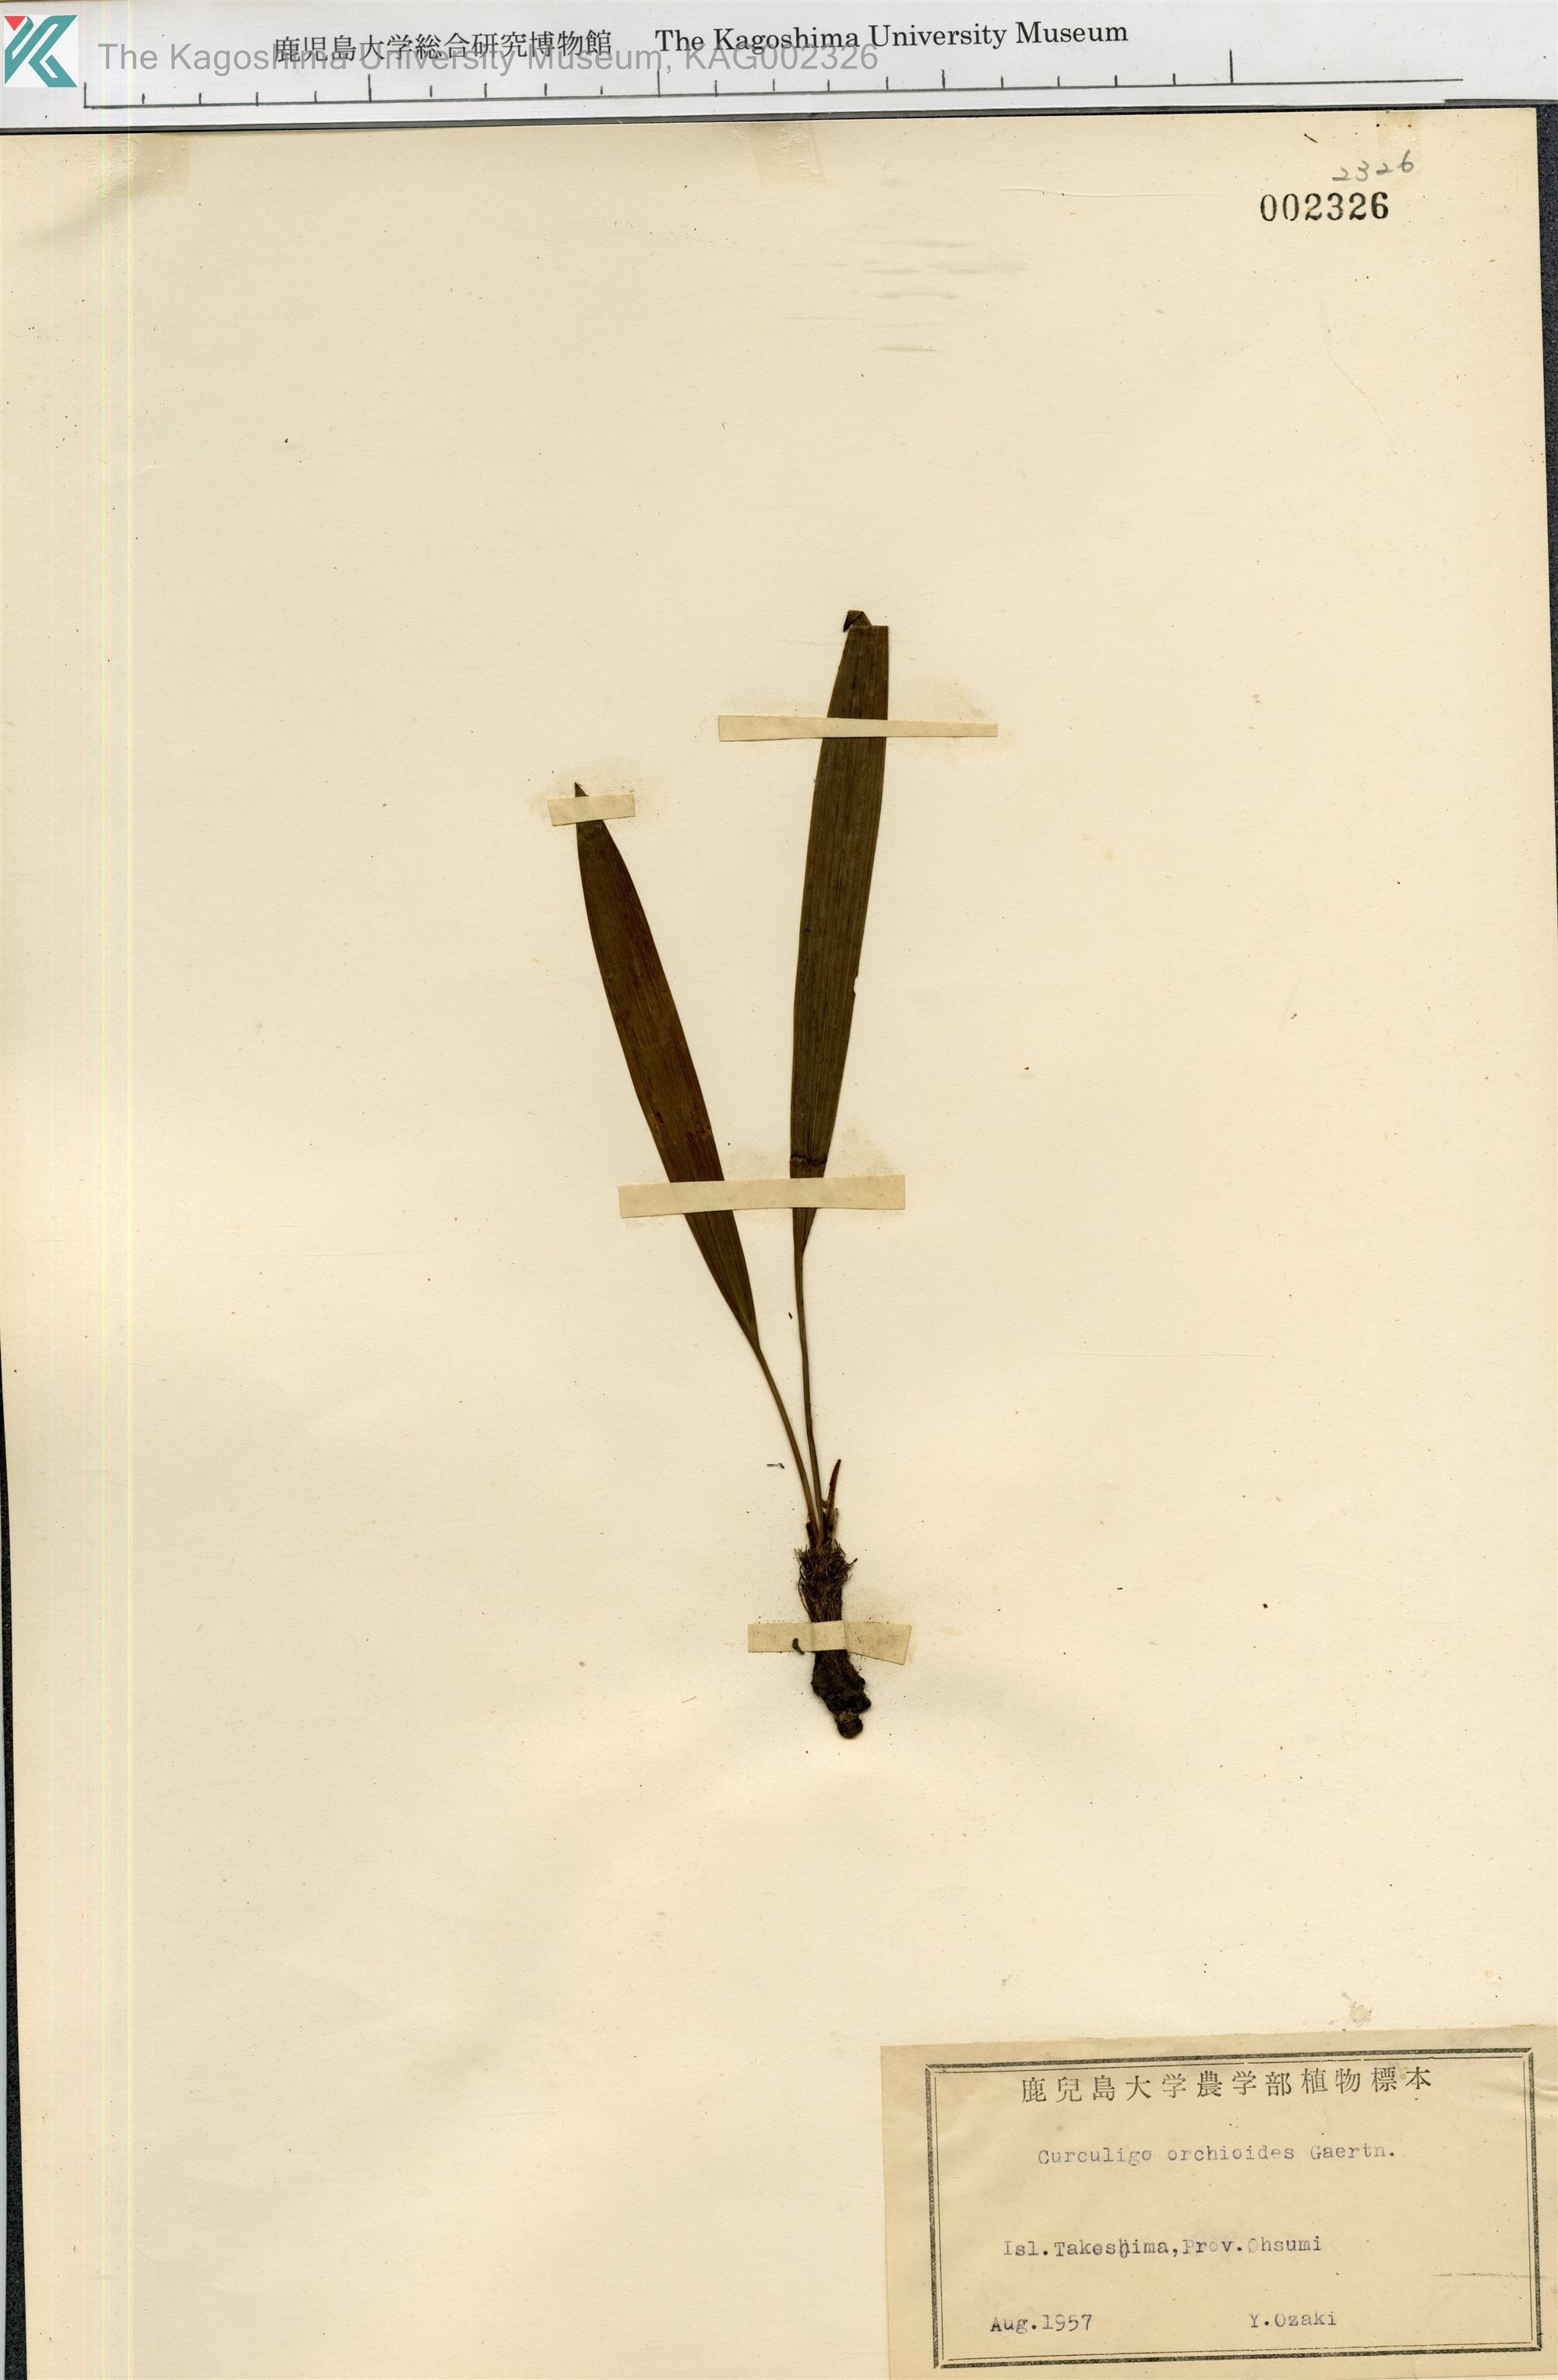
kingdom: Plantae
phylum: Tracheophyta
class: Liliopsida
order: Asparagales
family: Hypoxidaceae
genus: Curculigo
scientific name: Curculigo orchioides
